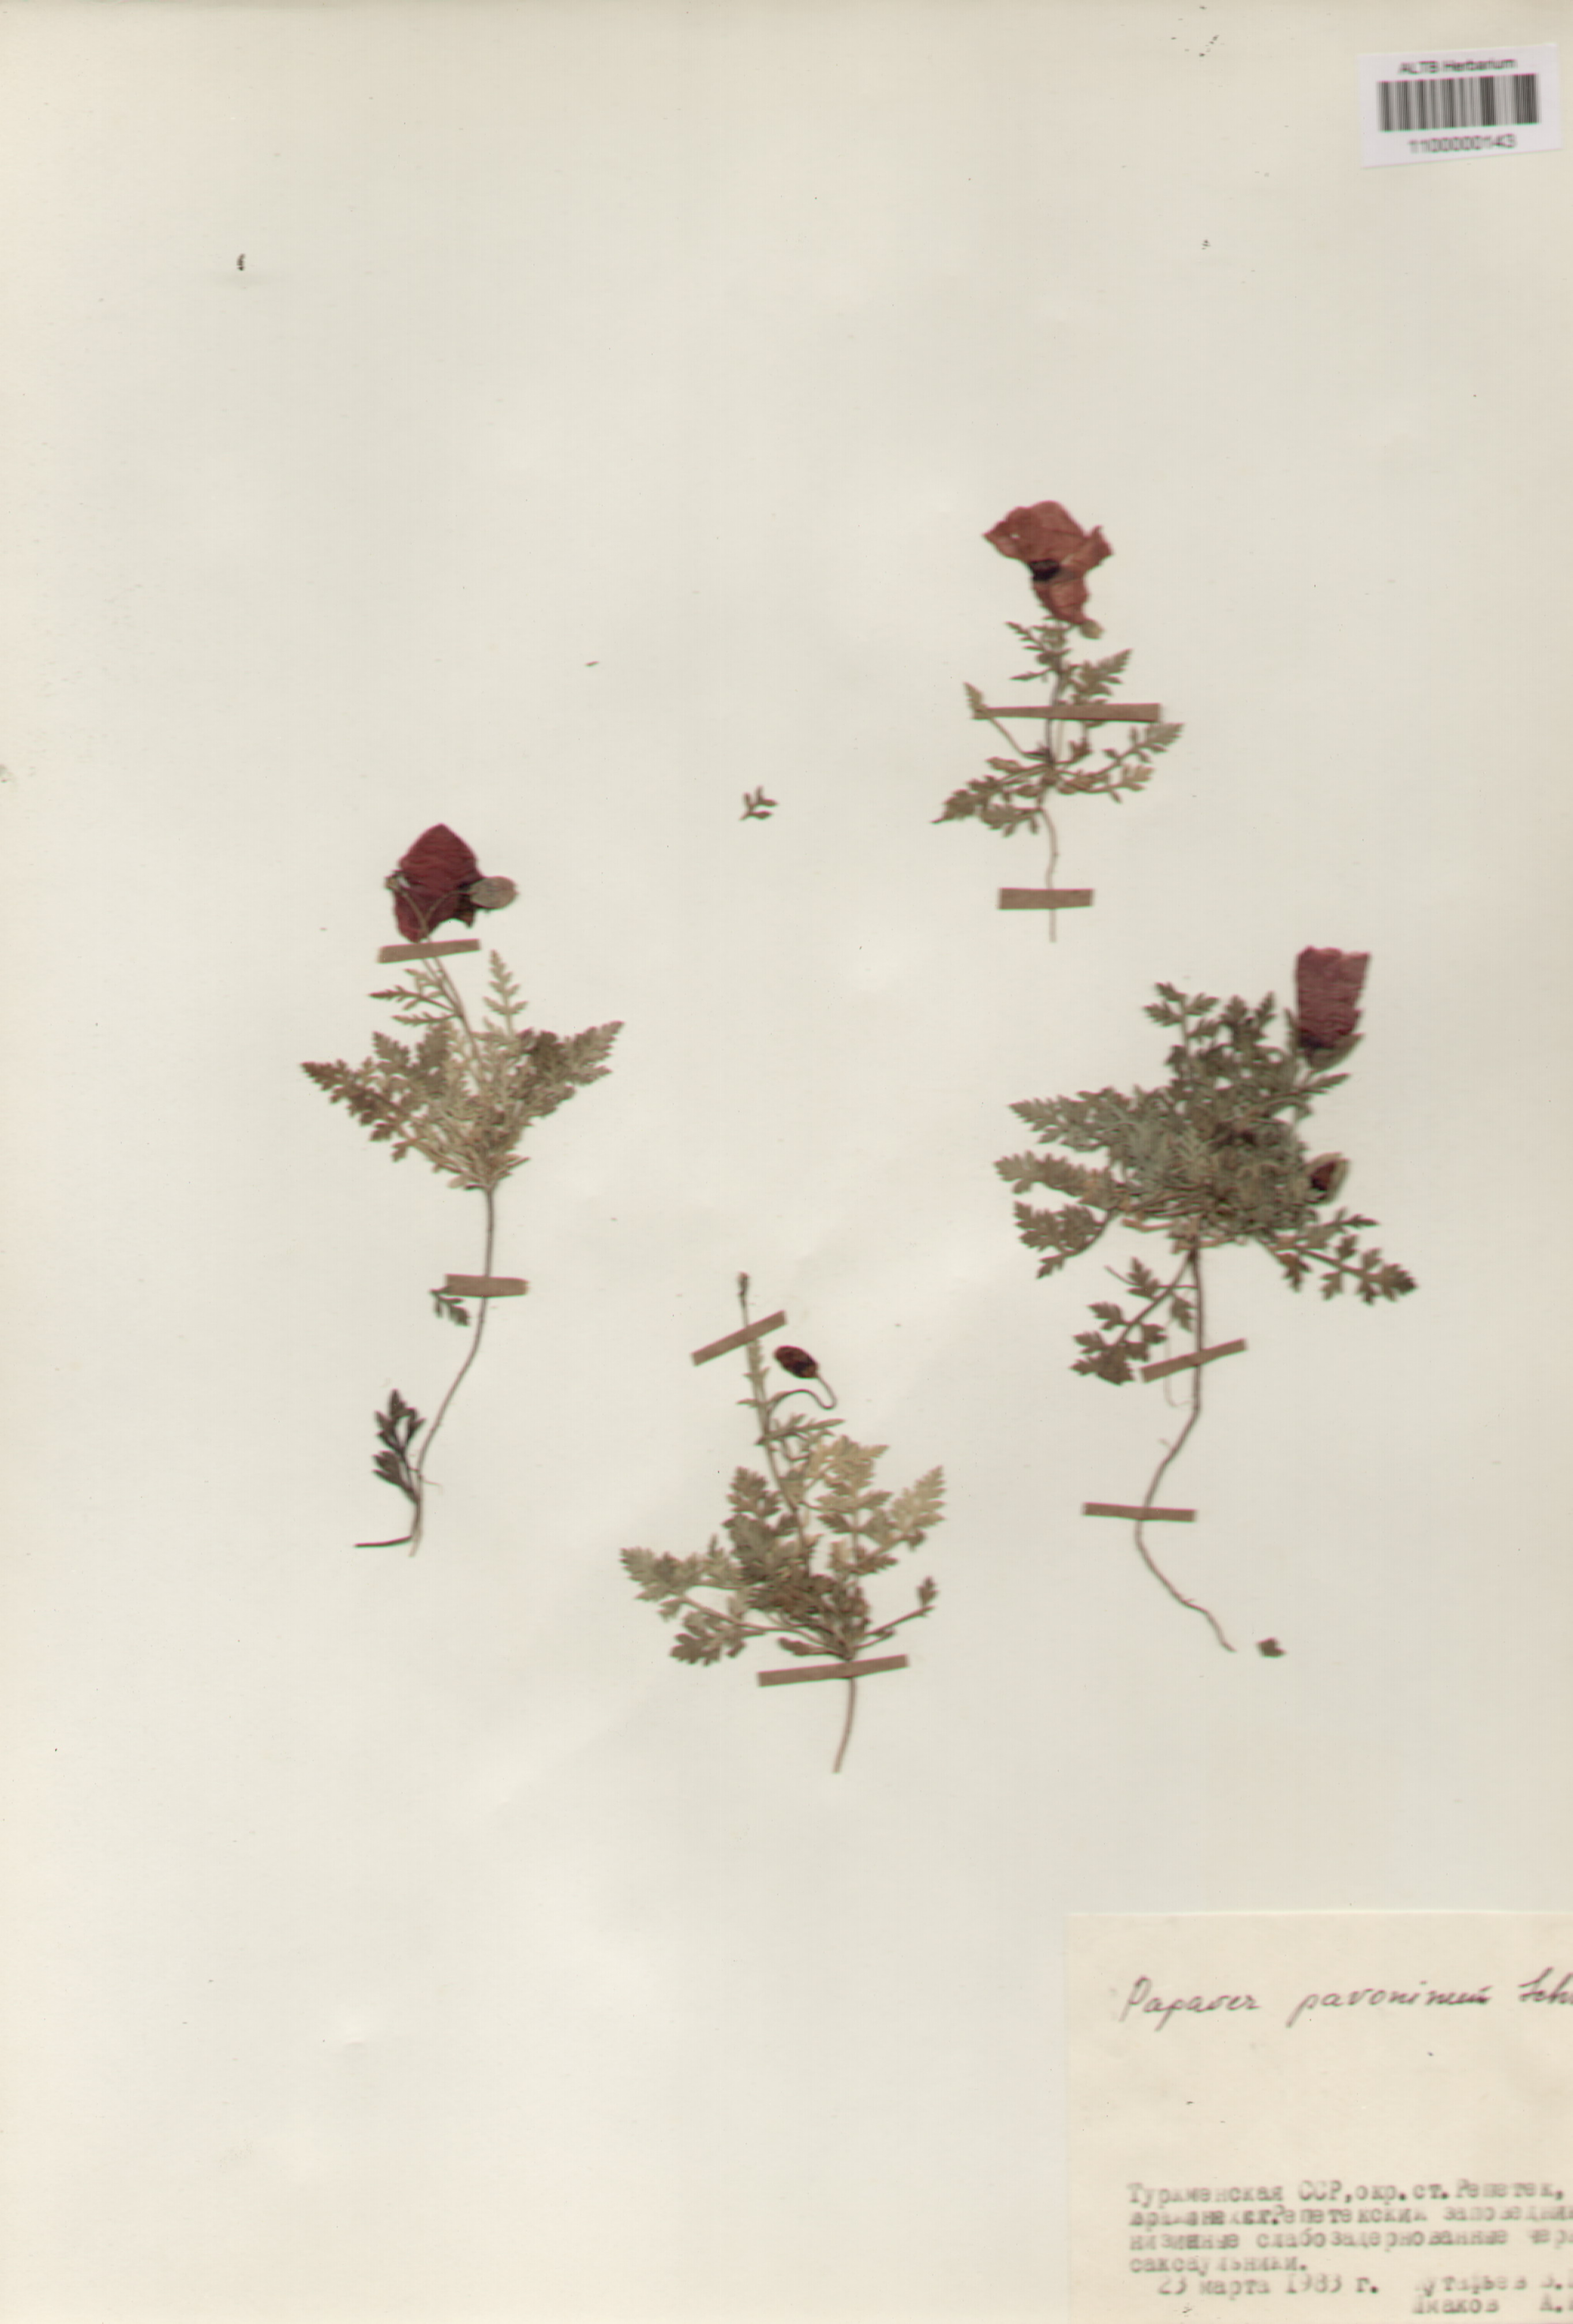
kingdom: Plantae
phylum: Tracheophyta
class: Magnoliopsida
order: Ranunculales
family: Papaveraceae
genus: Papaver
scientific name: Papaver pavoninum
